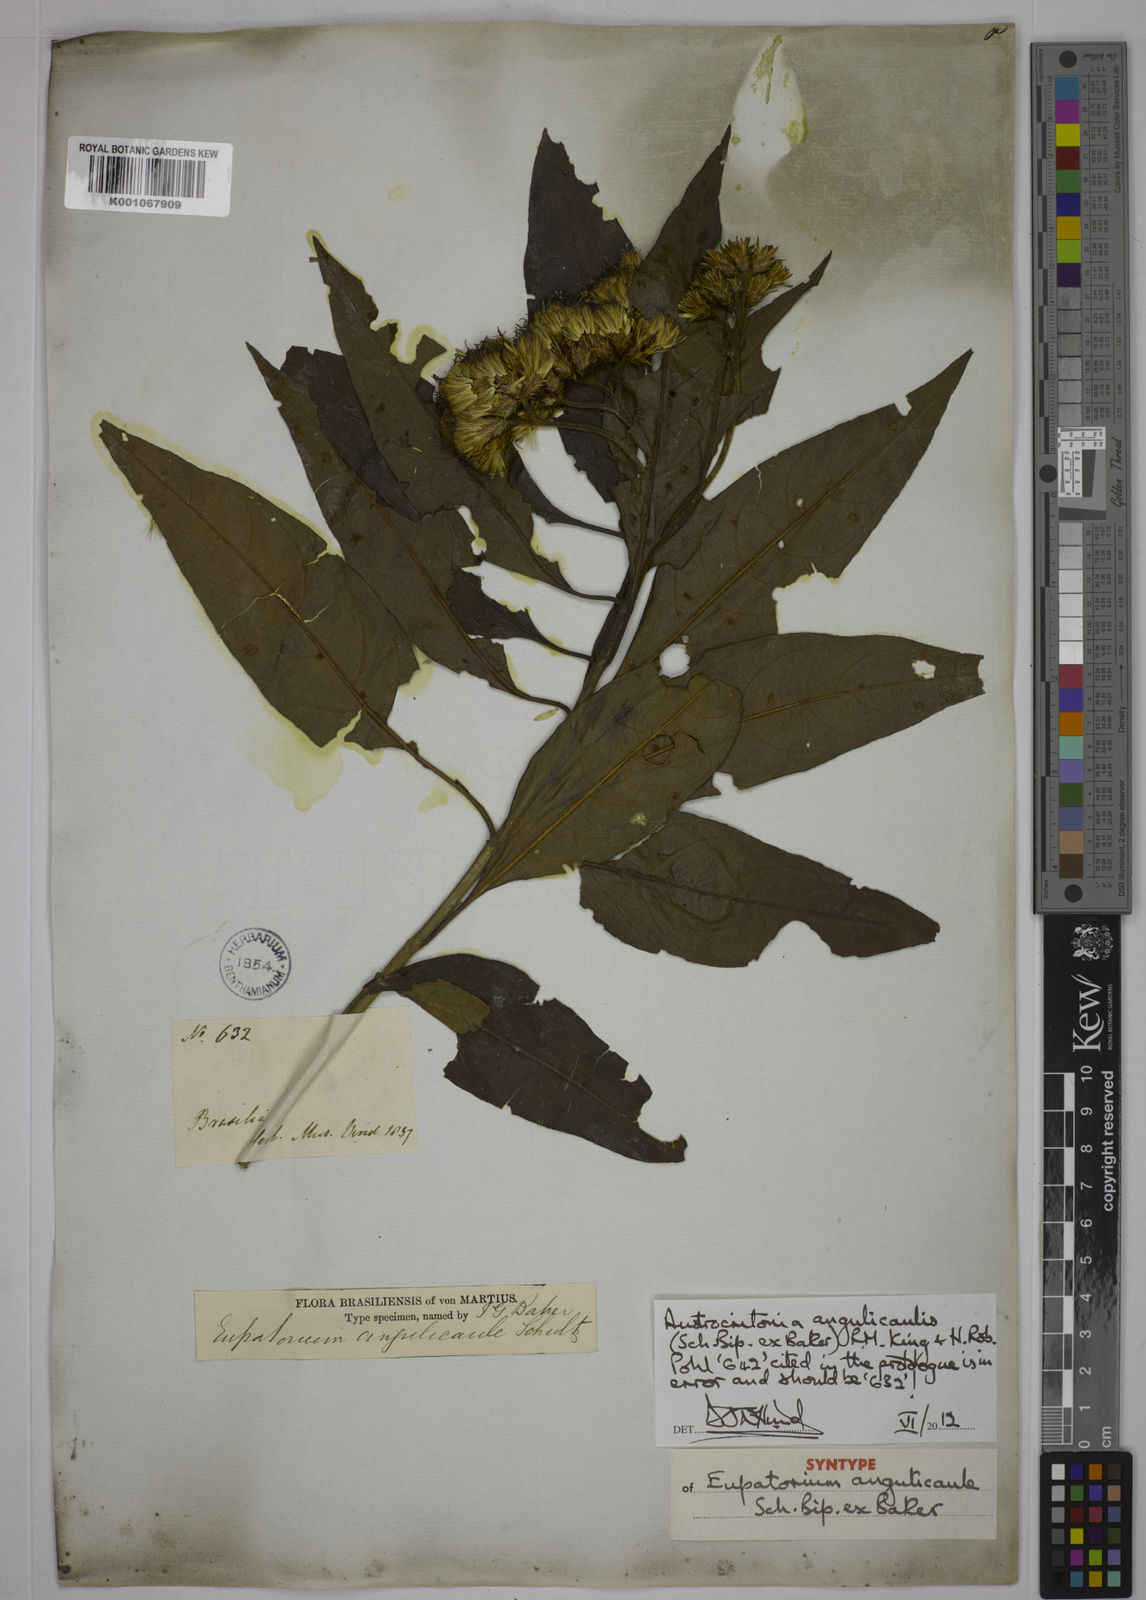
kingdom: Plantae
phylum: Tracheophyta
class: Magnoliopsida
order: Asterales
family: Asteraceae
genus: Austrocritonia
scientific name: Austrocritonia angulicaulis
